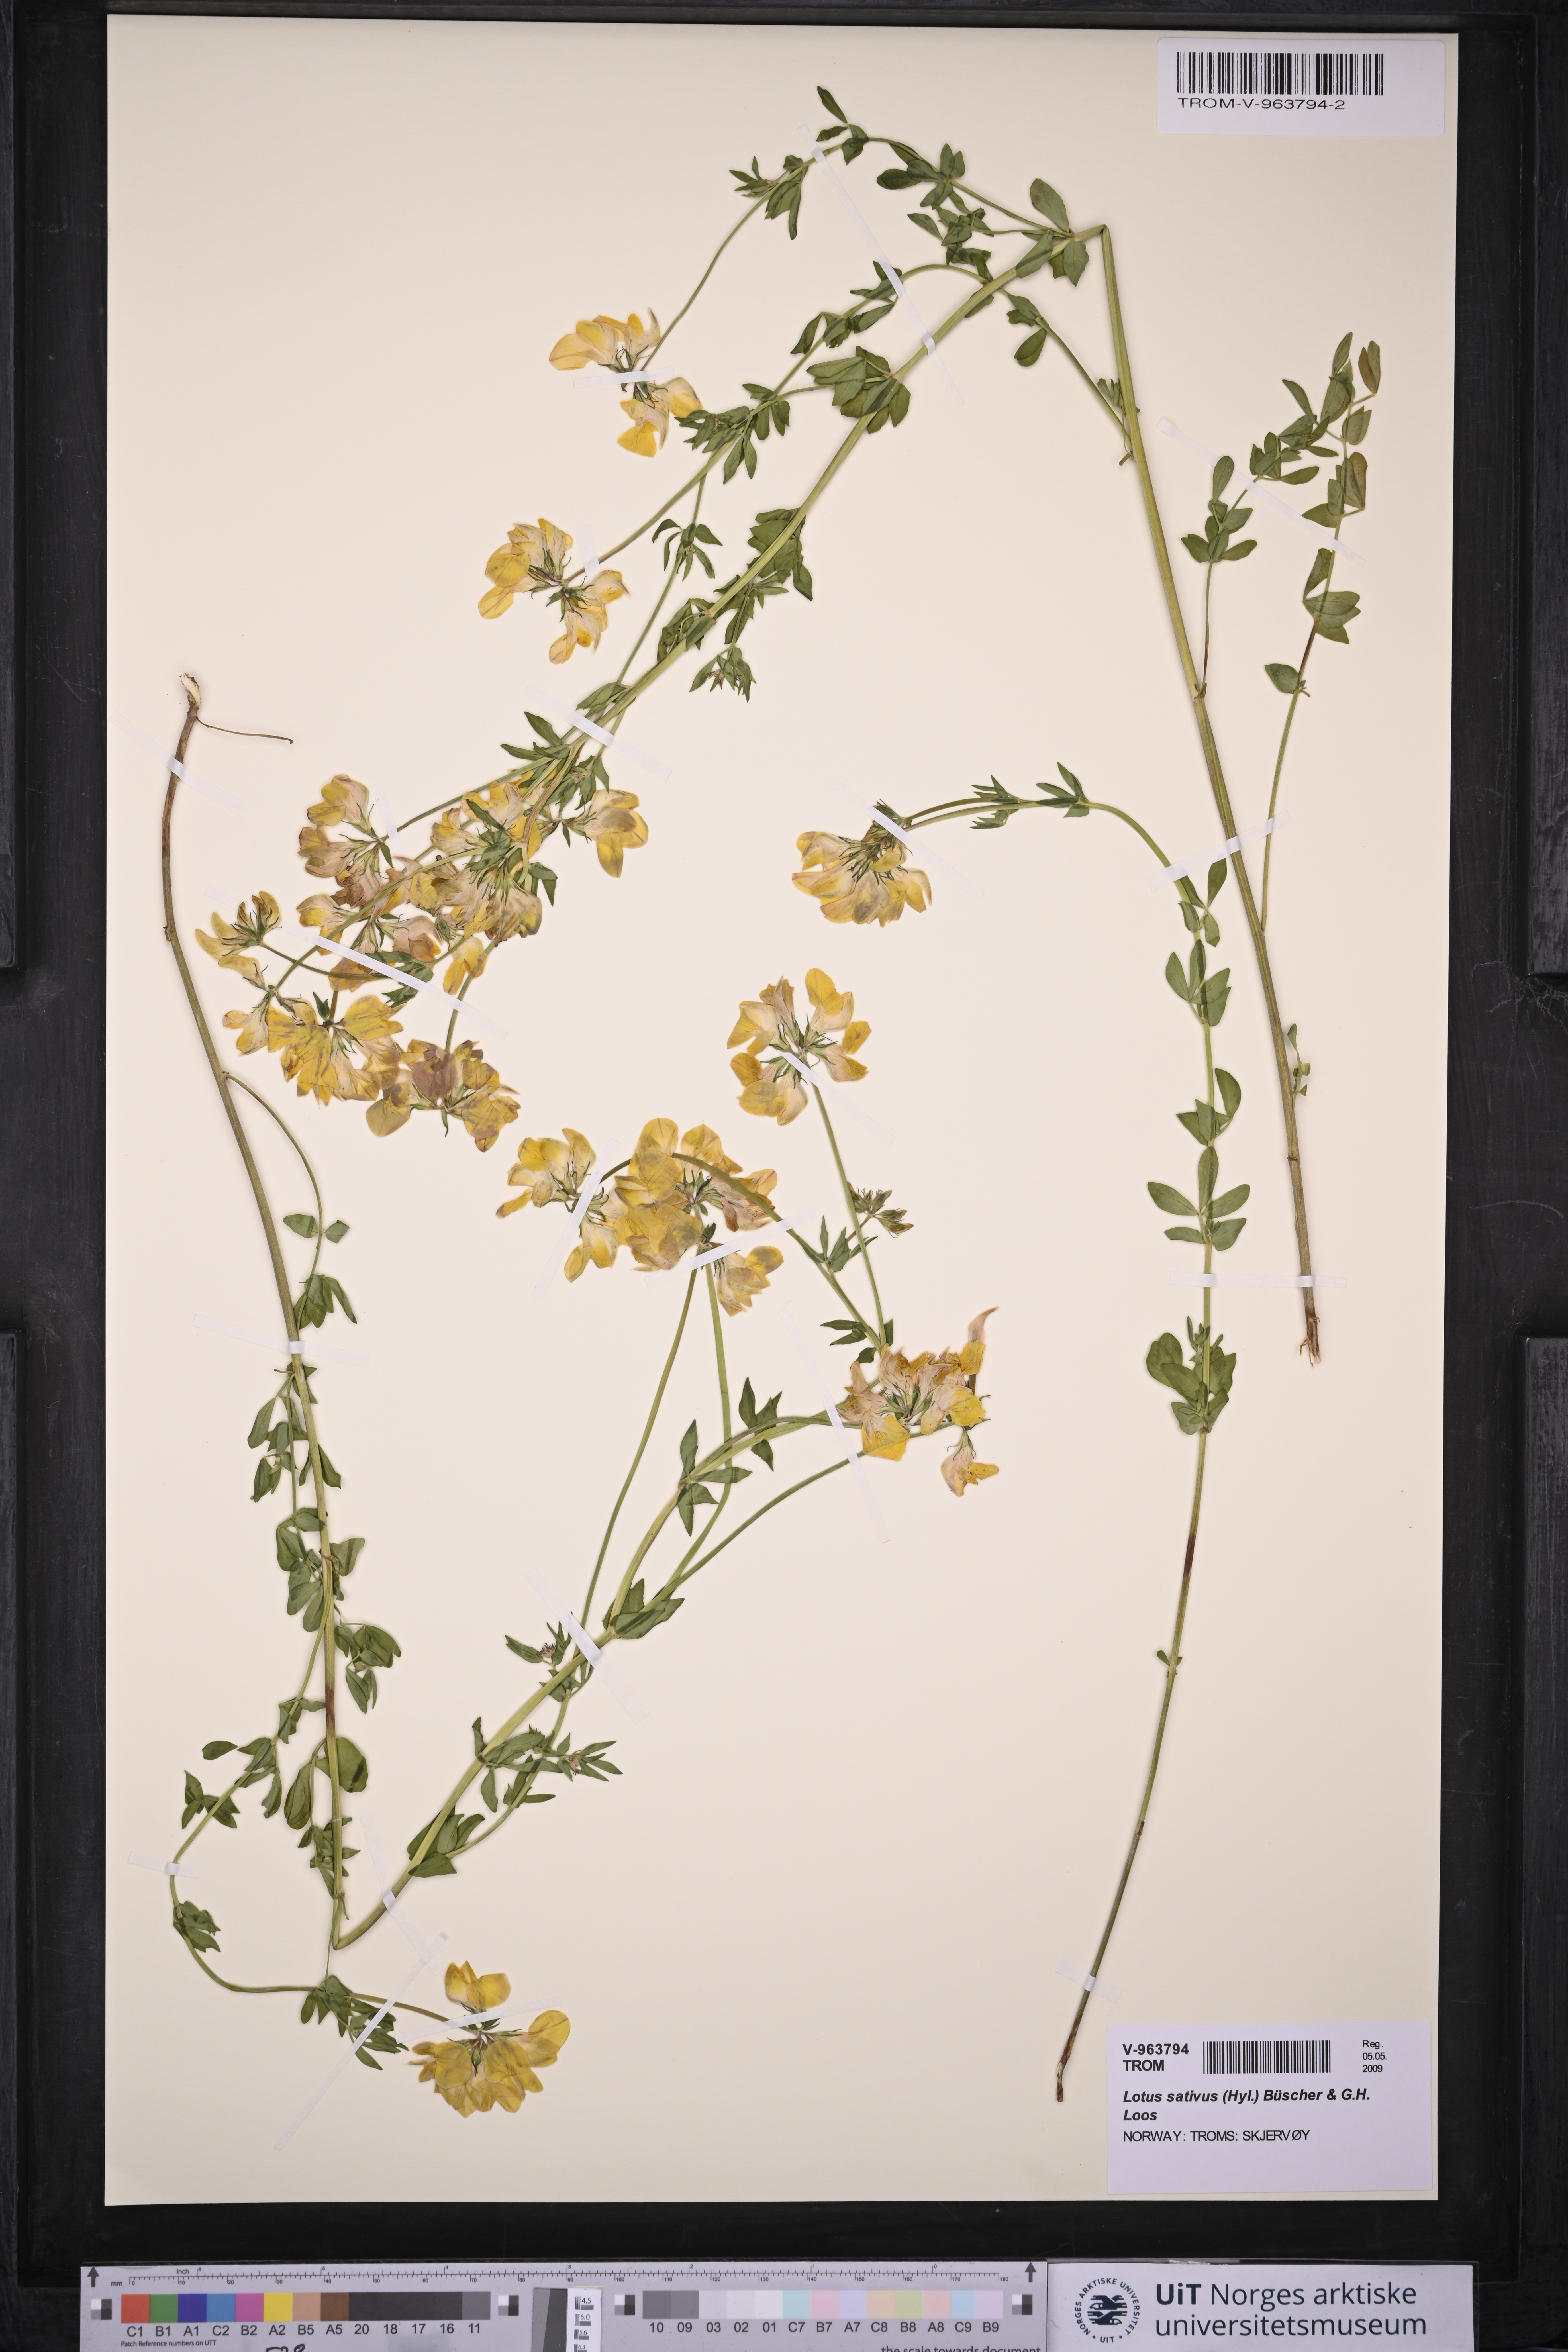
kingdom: Plantae
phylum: Tracheophyta
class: Magnoliopsida
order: Fabales
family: Fabaceae
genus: Lotus
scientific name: Lotus corniculatus
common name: Common bird's-foot-trefoil
